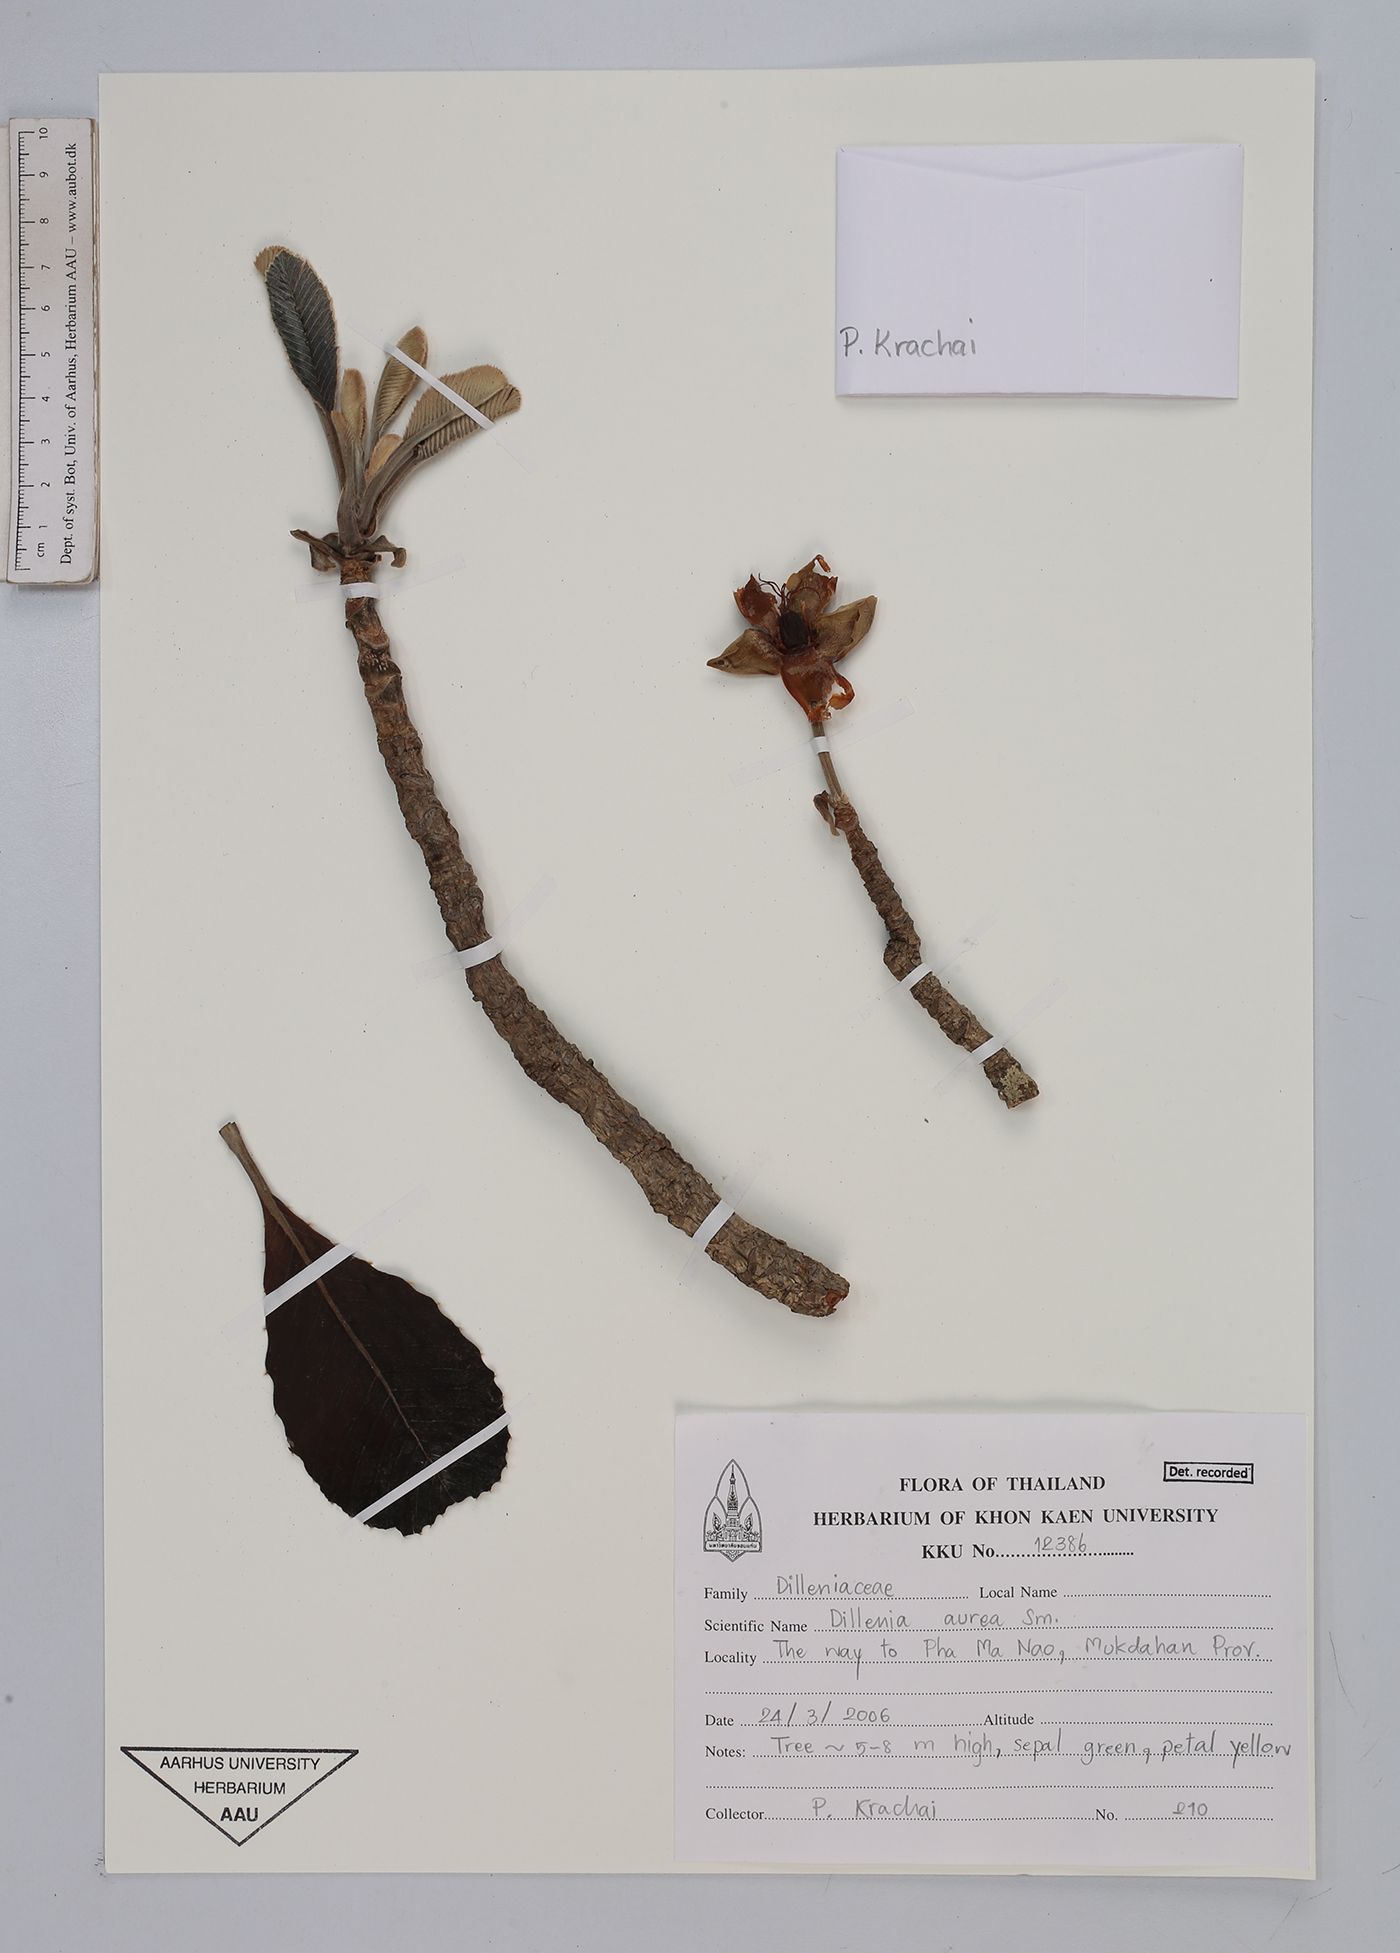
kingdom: Plantae
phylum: Tracheophyta
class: Magnoliopsida
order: Dilleniales
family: Dilleniaceae
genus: Dillenia
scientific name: Dillenia aurea
